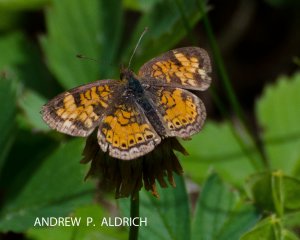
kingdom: Animalia
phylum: Arthropoda
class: Insecta
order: Lepidoptera
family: Nymphalidae
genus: Phyciodes
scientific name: Phyciodes tharos
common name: Pearl Crescent
